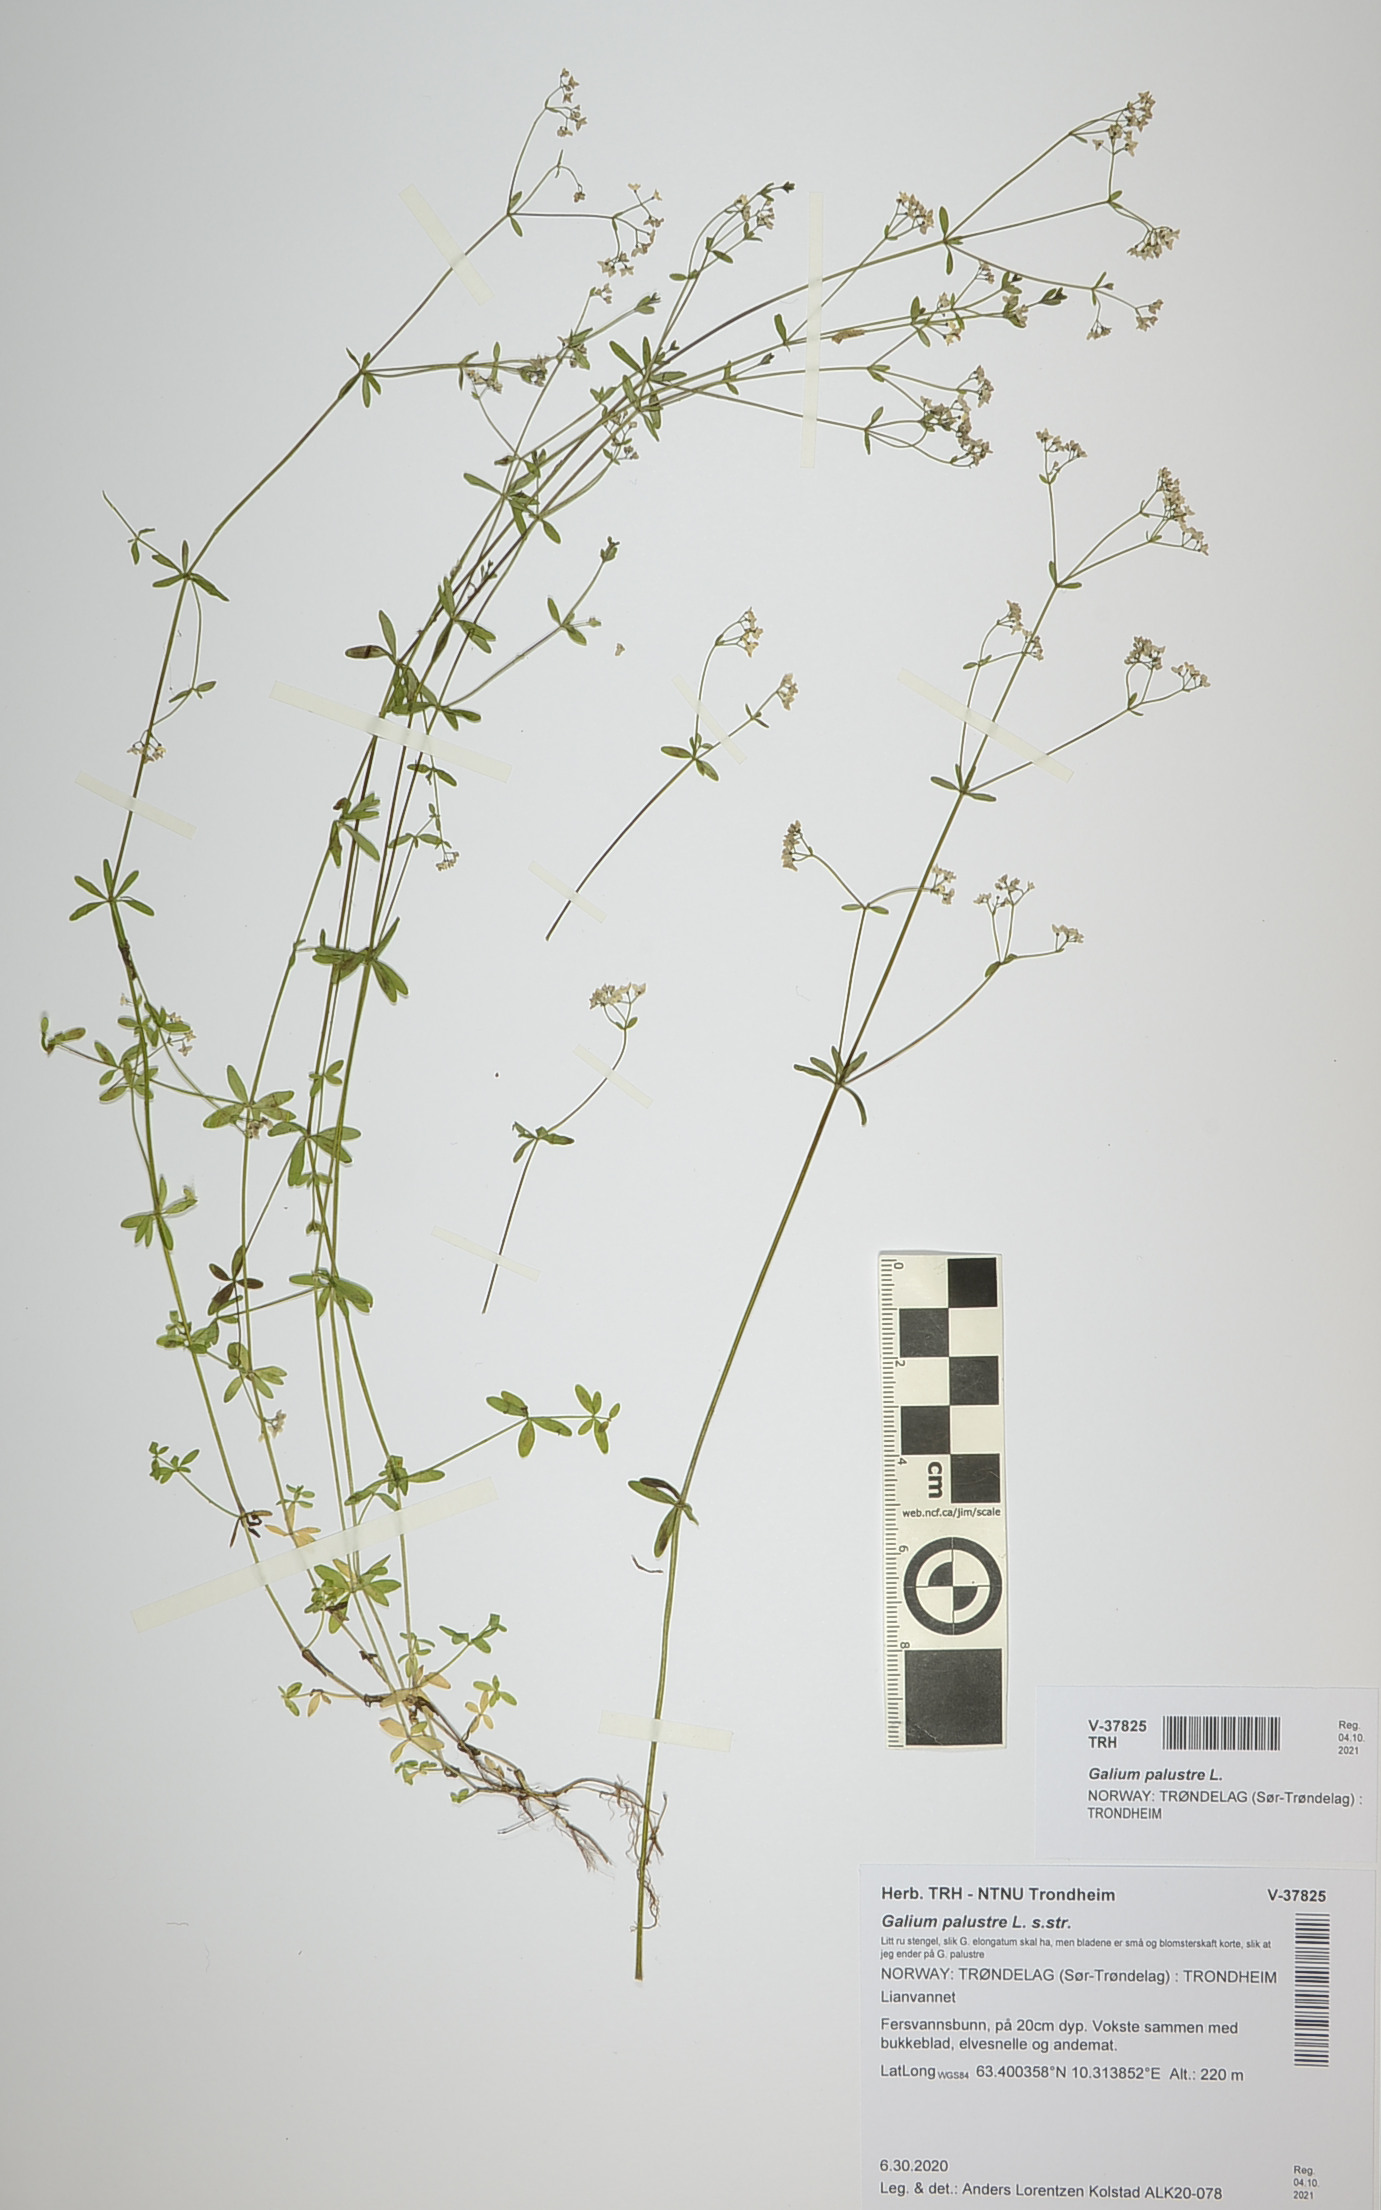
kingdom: Plantae
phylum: Tracheophyta
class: Magnoliopsida
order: Gentianales
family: Rubiaceae
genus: Galium
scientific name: Galium palustre
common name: Common marsh-bedstraw
